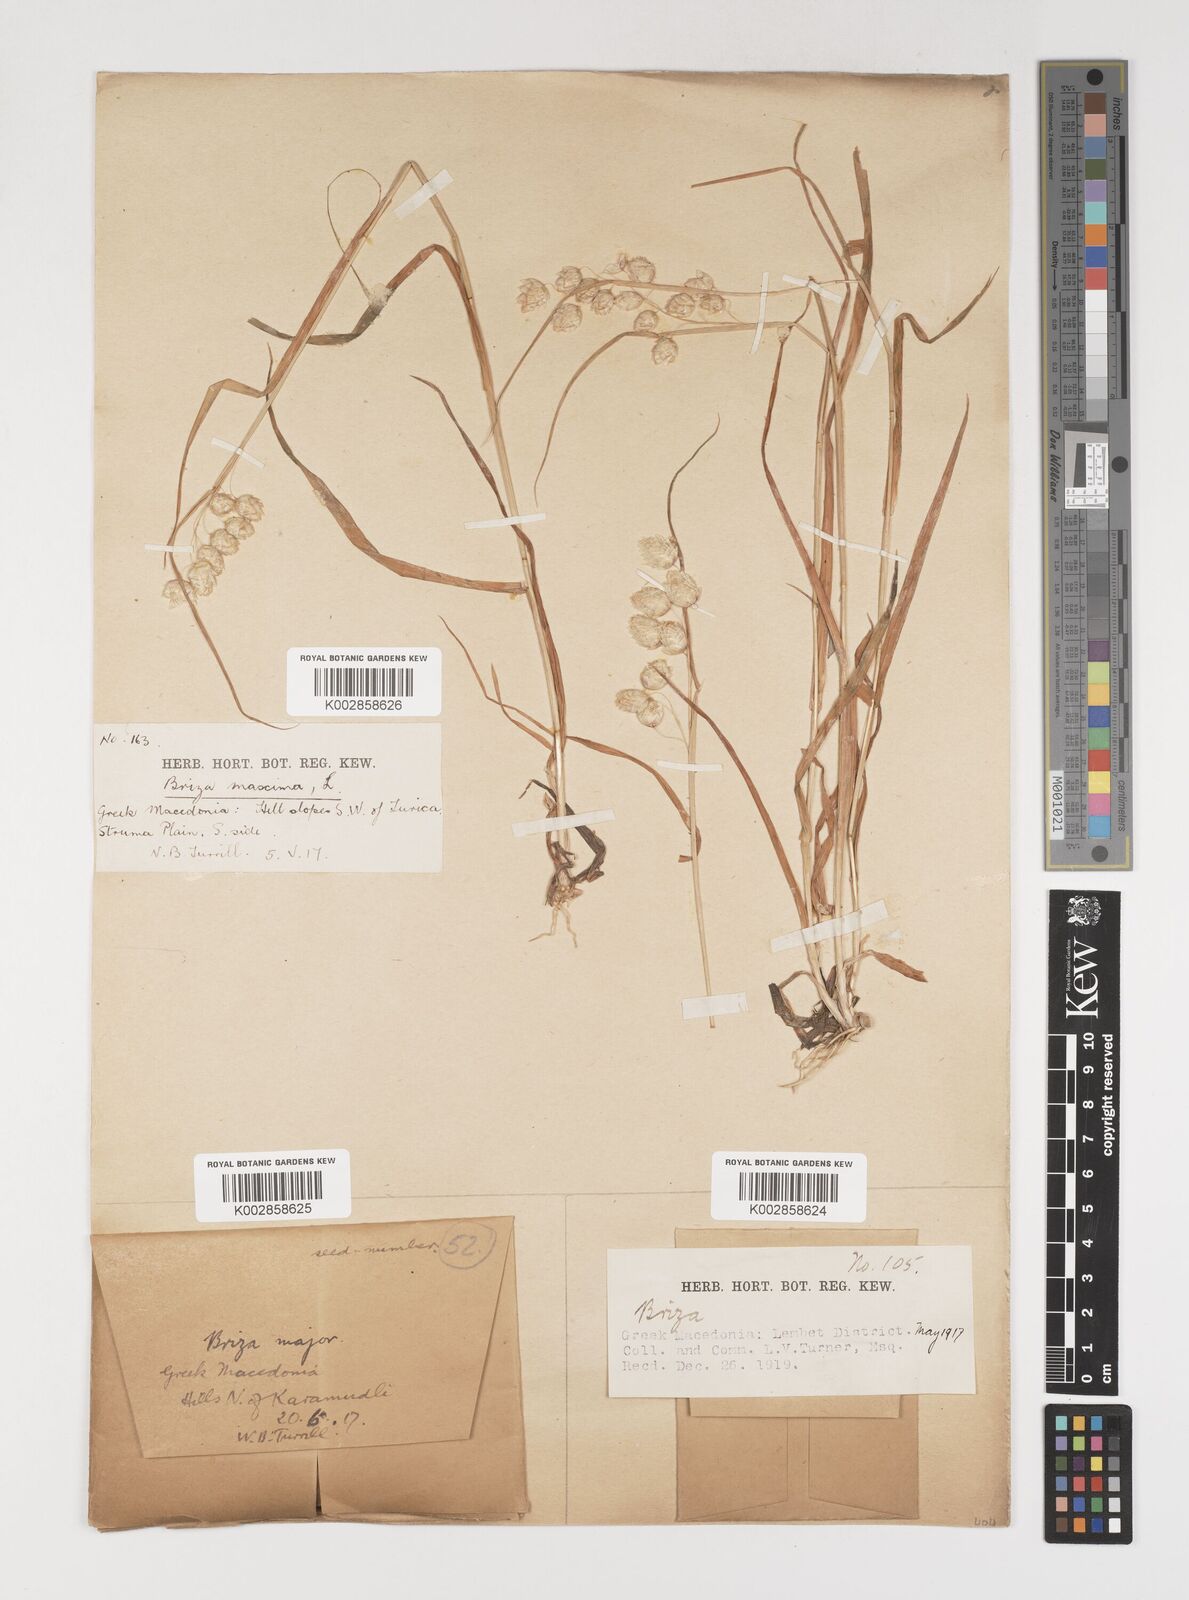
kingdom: Plantae
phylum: Tracheophyta
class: Liliopsida
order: Poales
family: Poaceae
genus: Briza
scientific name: Briza maxima
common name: Big quakinggrass
